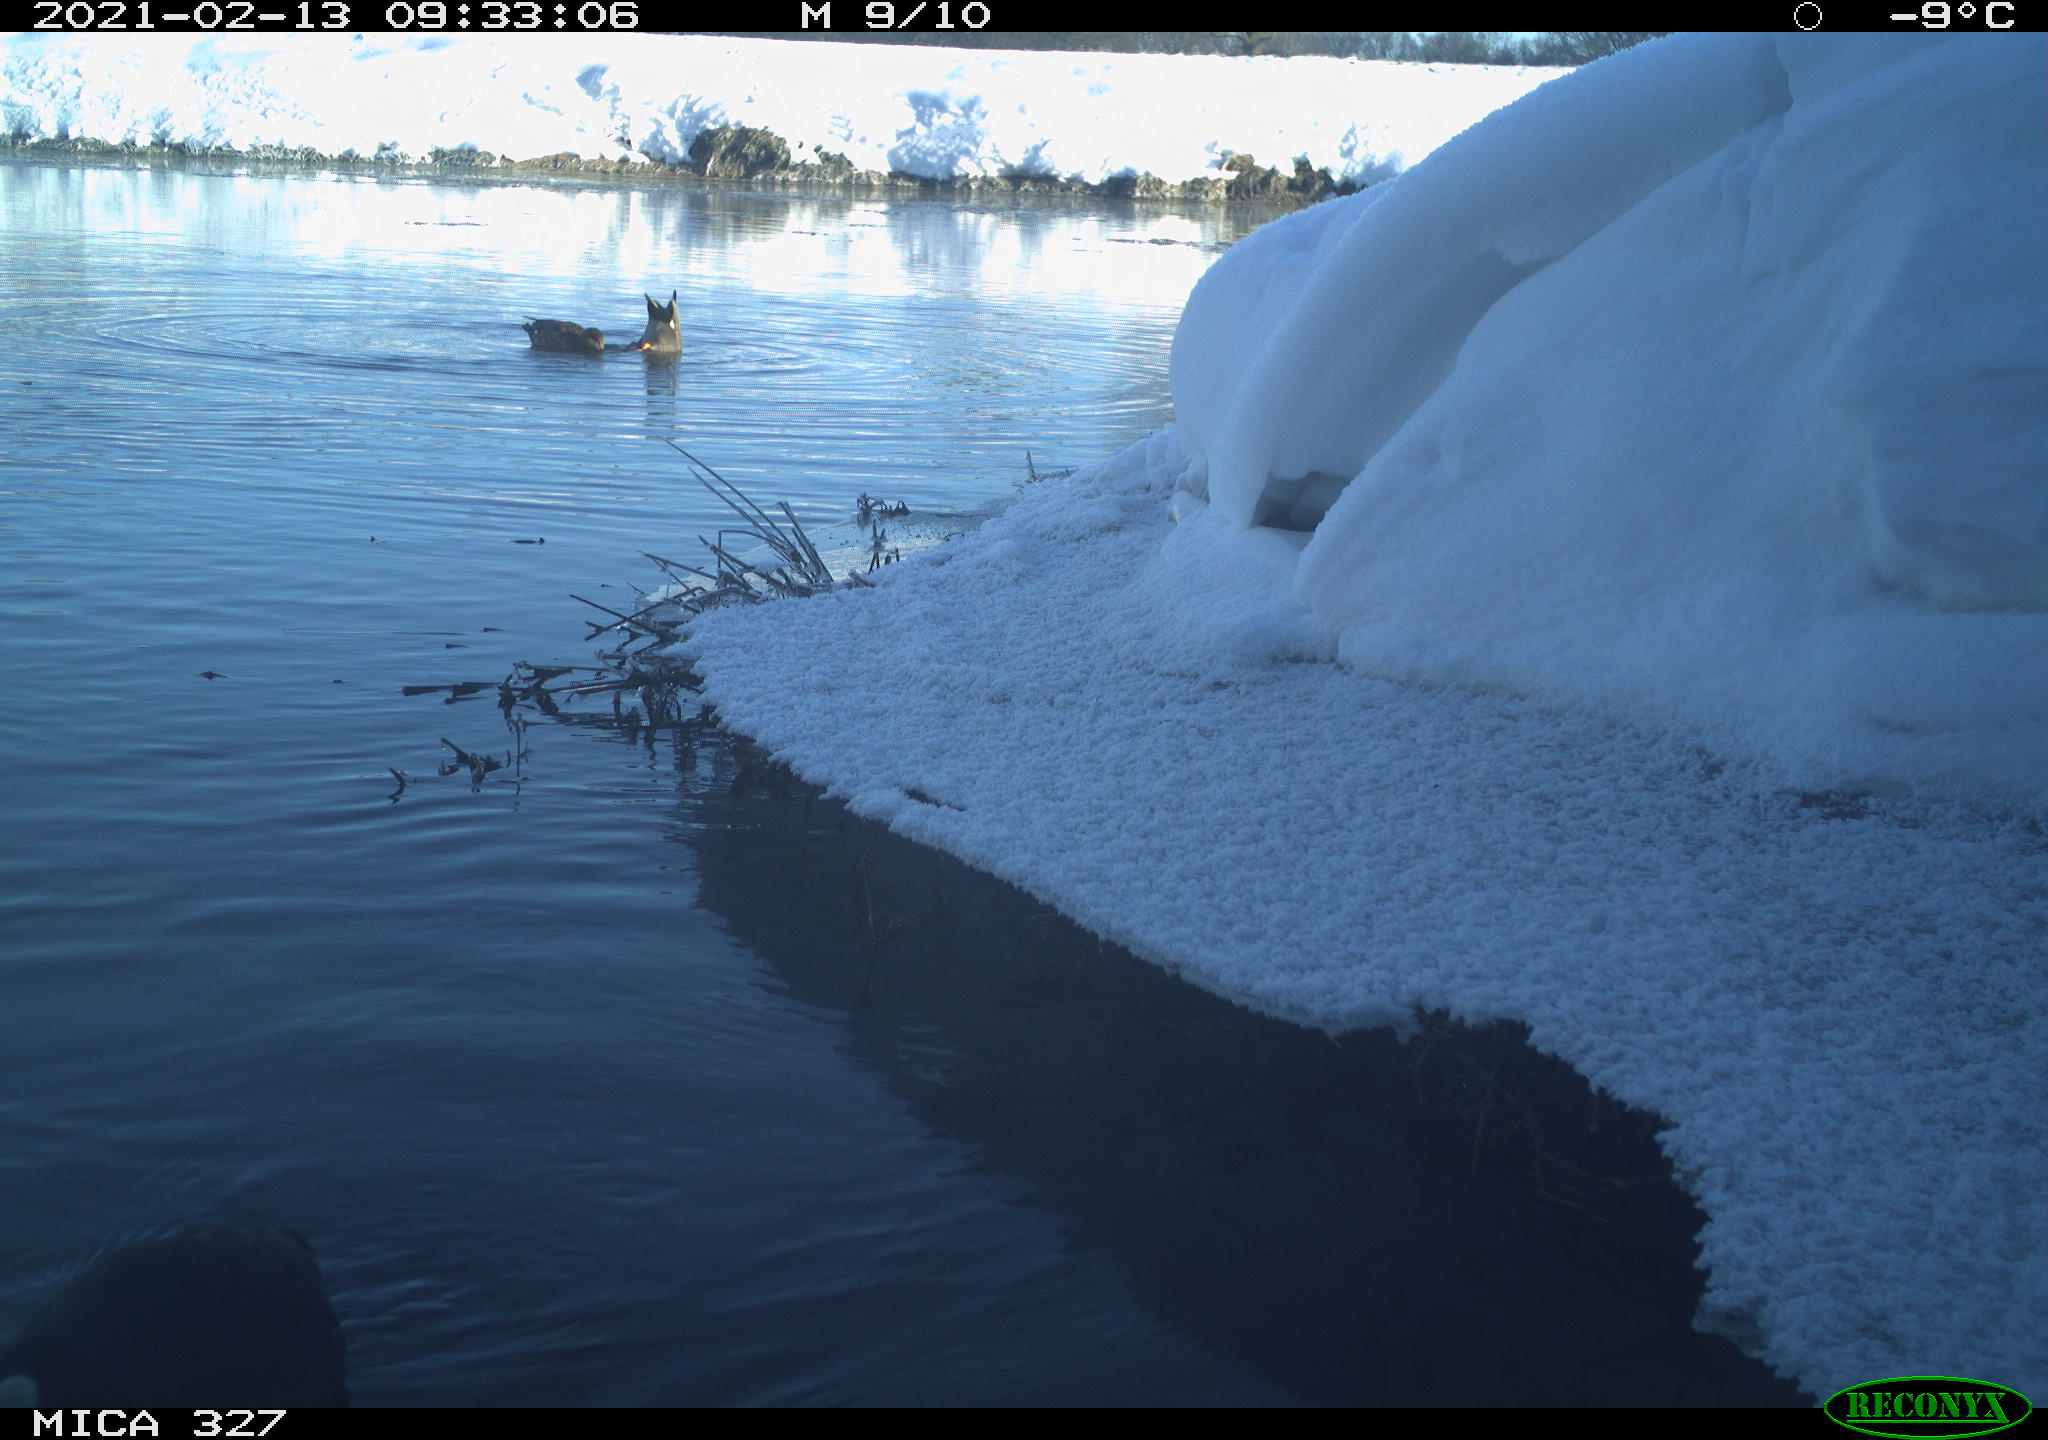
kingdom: Animalia
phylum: Chordata
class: Aves
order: Gruiformes
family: Rallidae
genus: Fulica
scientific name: Fulica atra
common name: Eurasian coot
